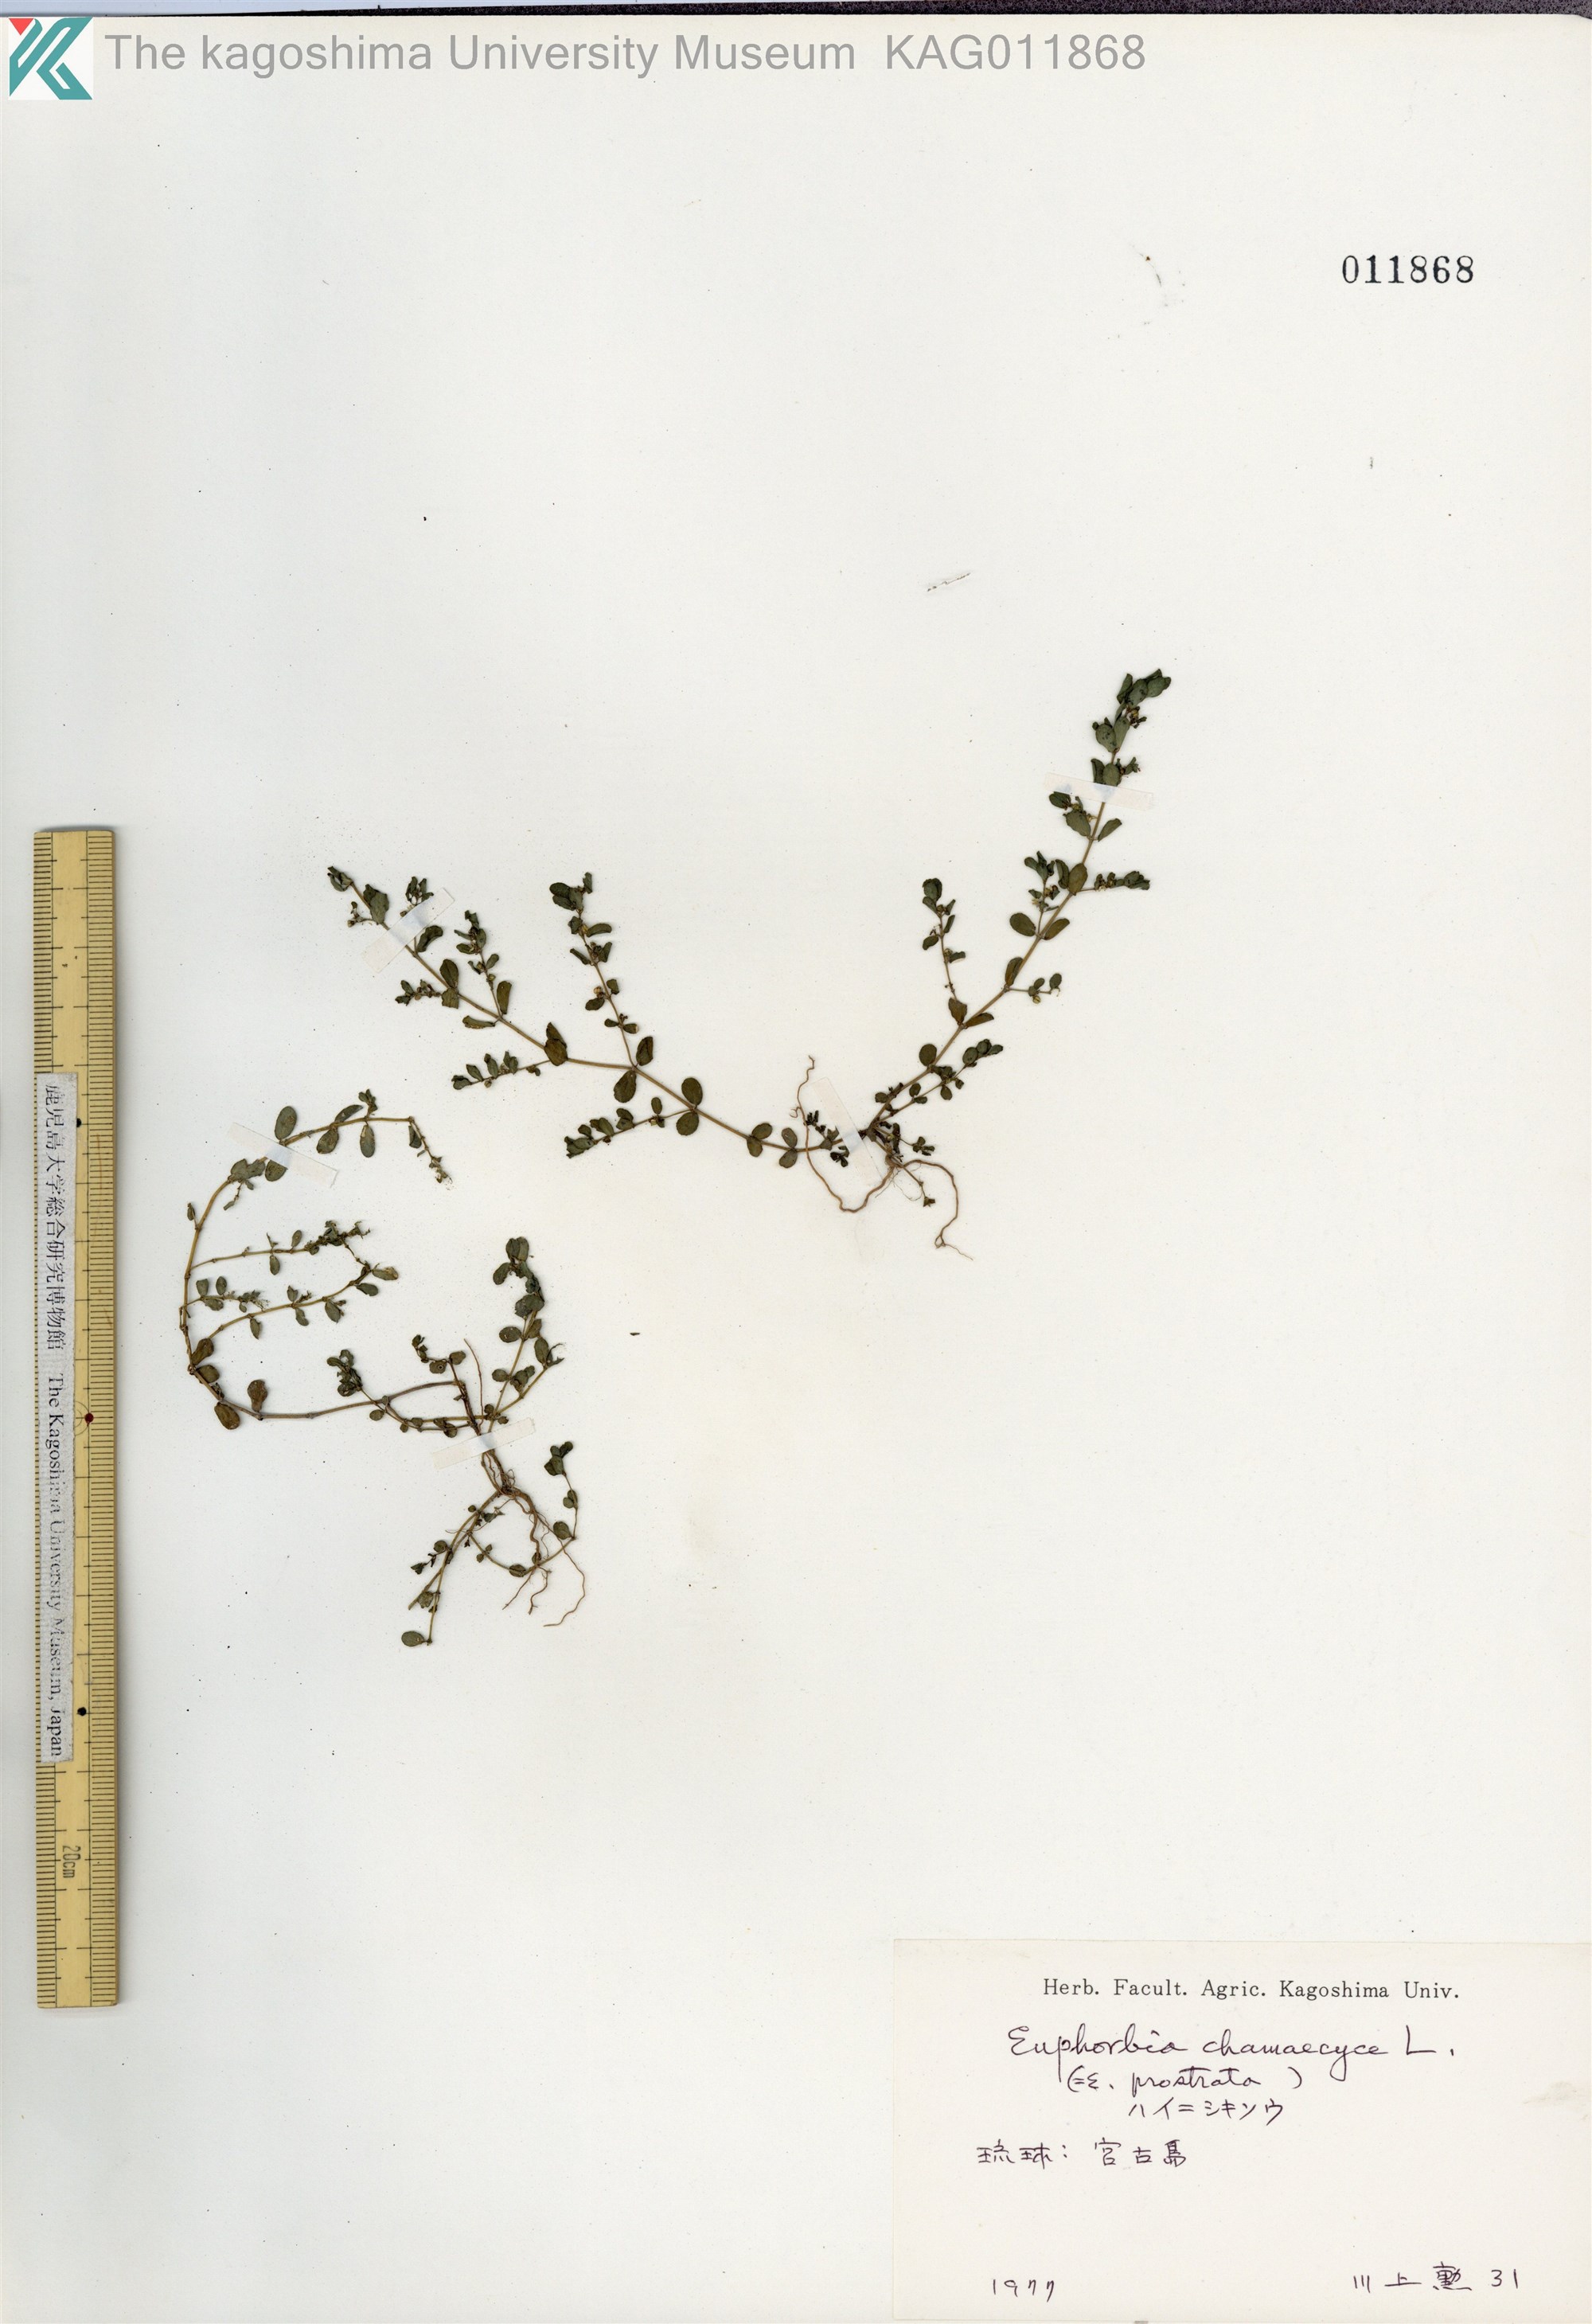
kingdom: Plantae
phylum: Tracheophyta
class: Magnoliopsida
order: Malpighiales
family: Euphorbiaceae
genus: Euphorbia
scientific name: Euphorbia prostrata
